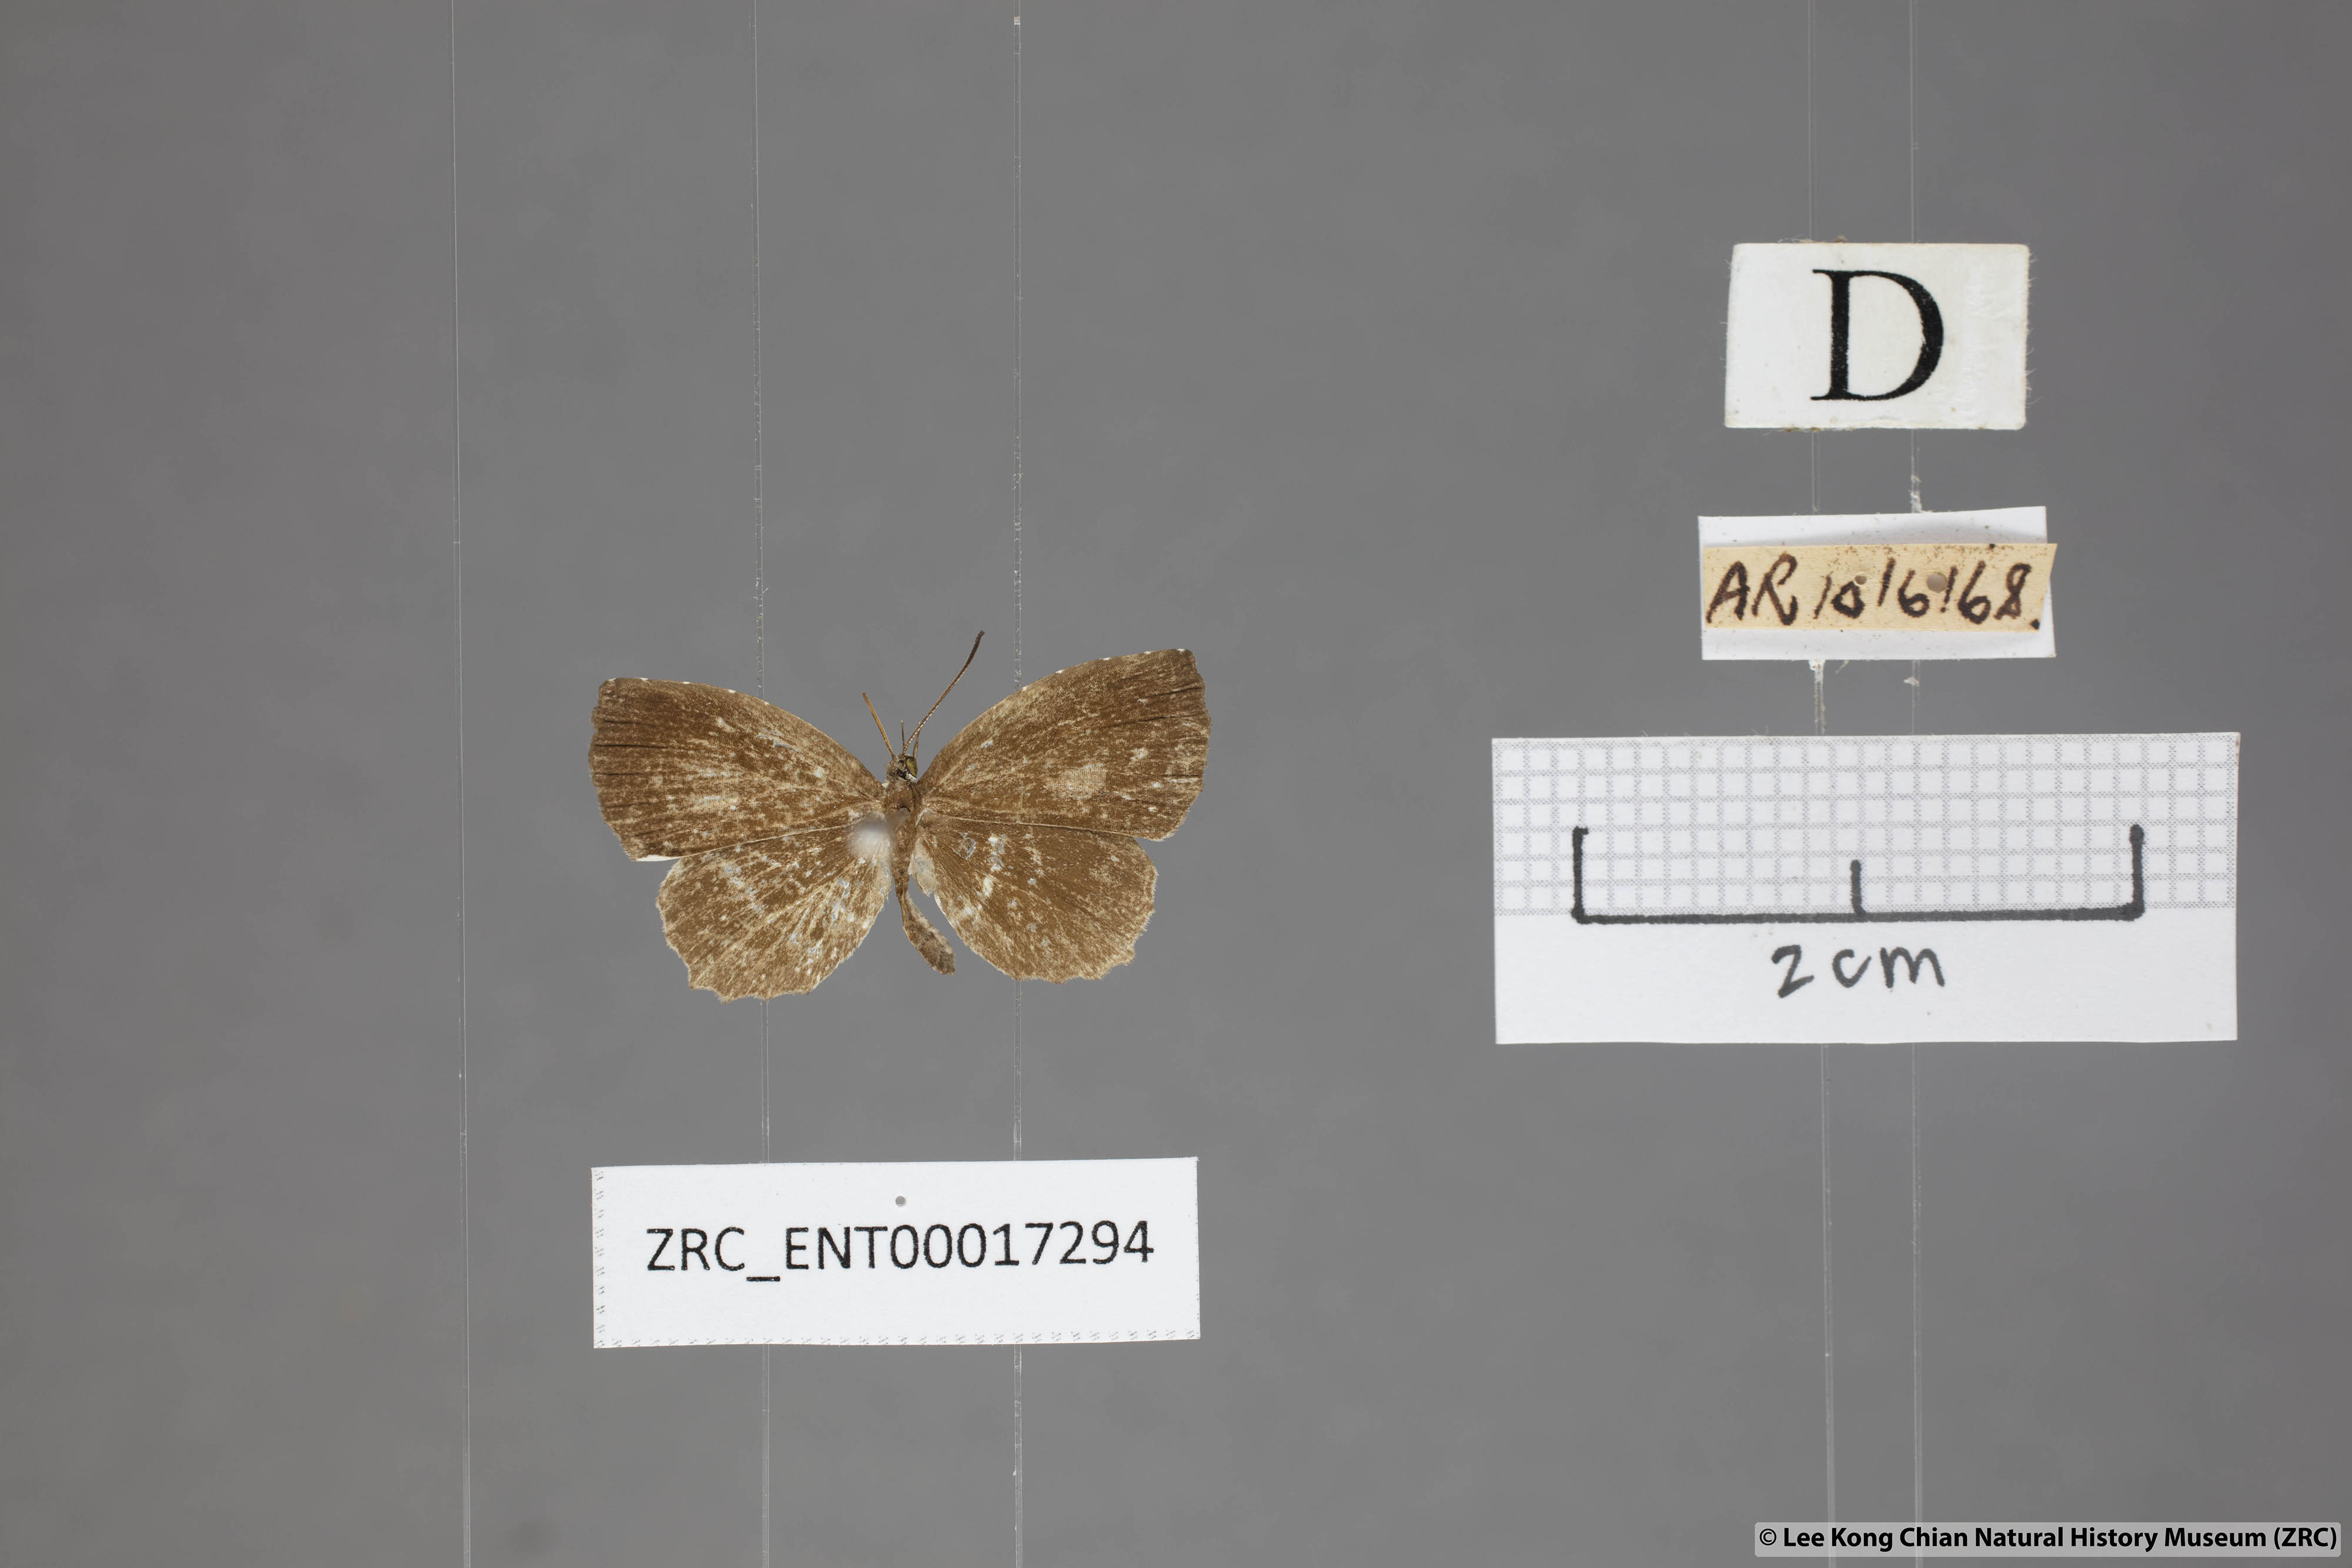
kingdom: Animalia
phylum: Arthropoda
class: Insecta
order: Lepidoptera
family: Lycaenidae
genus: Allotinus
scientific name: Allotinus substrigosa
